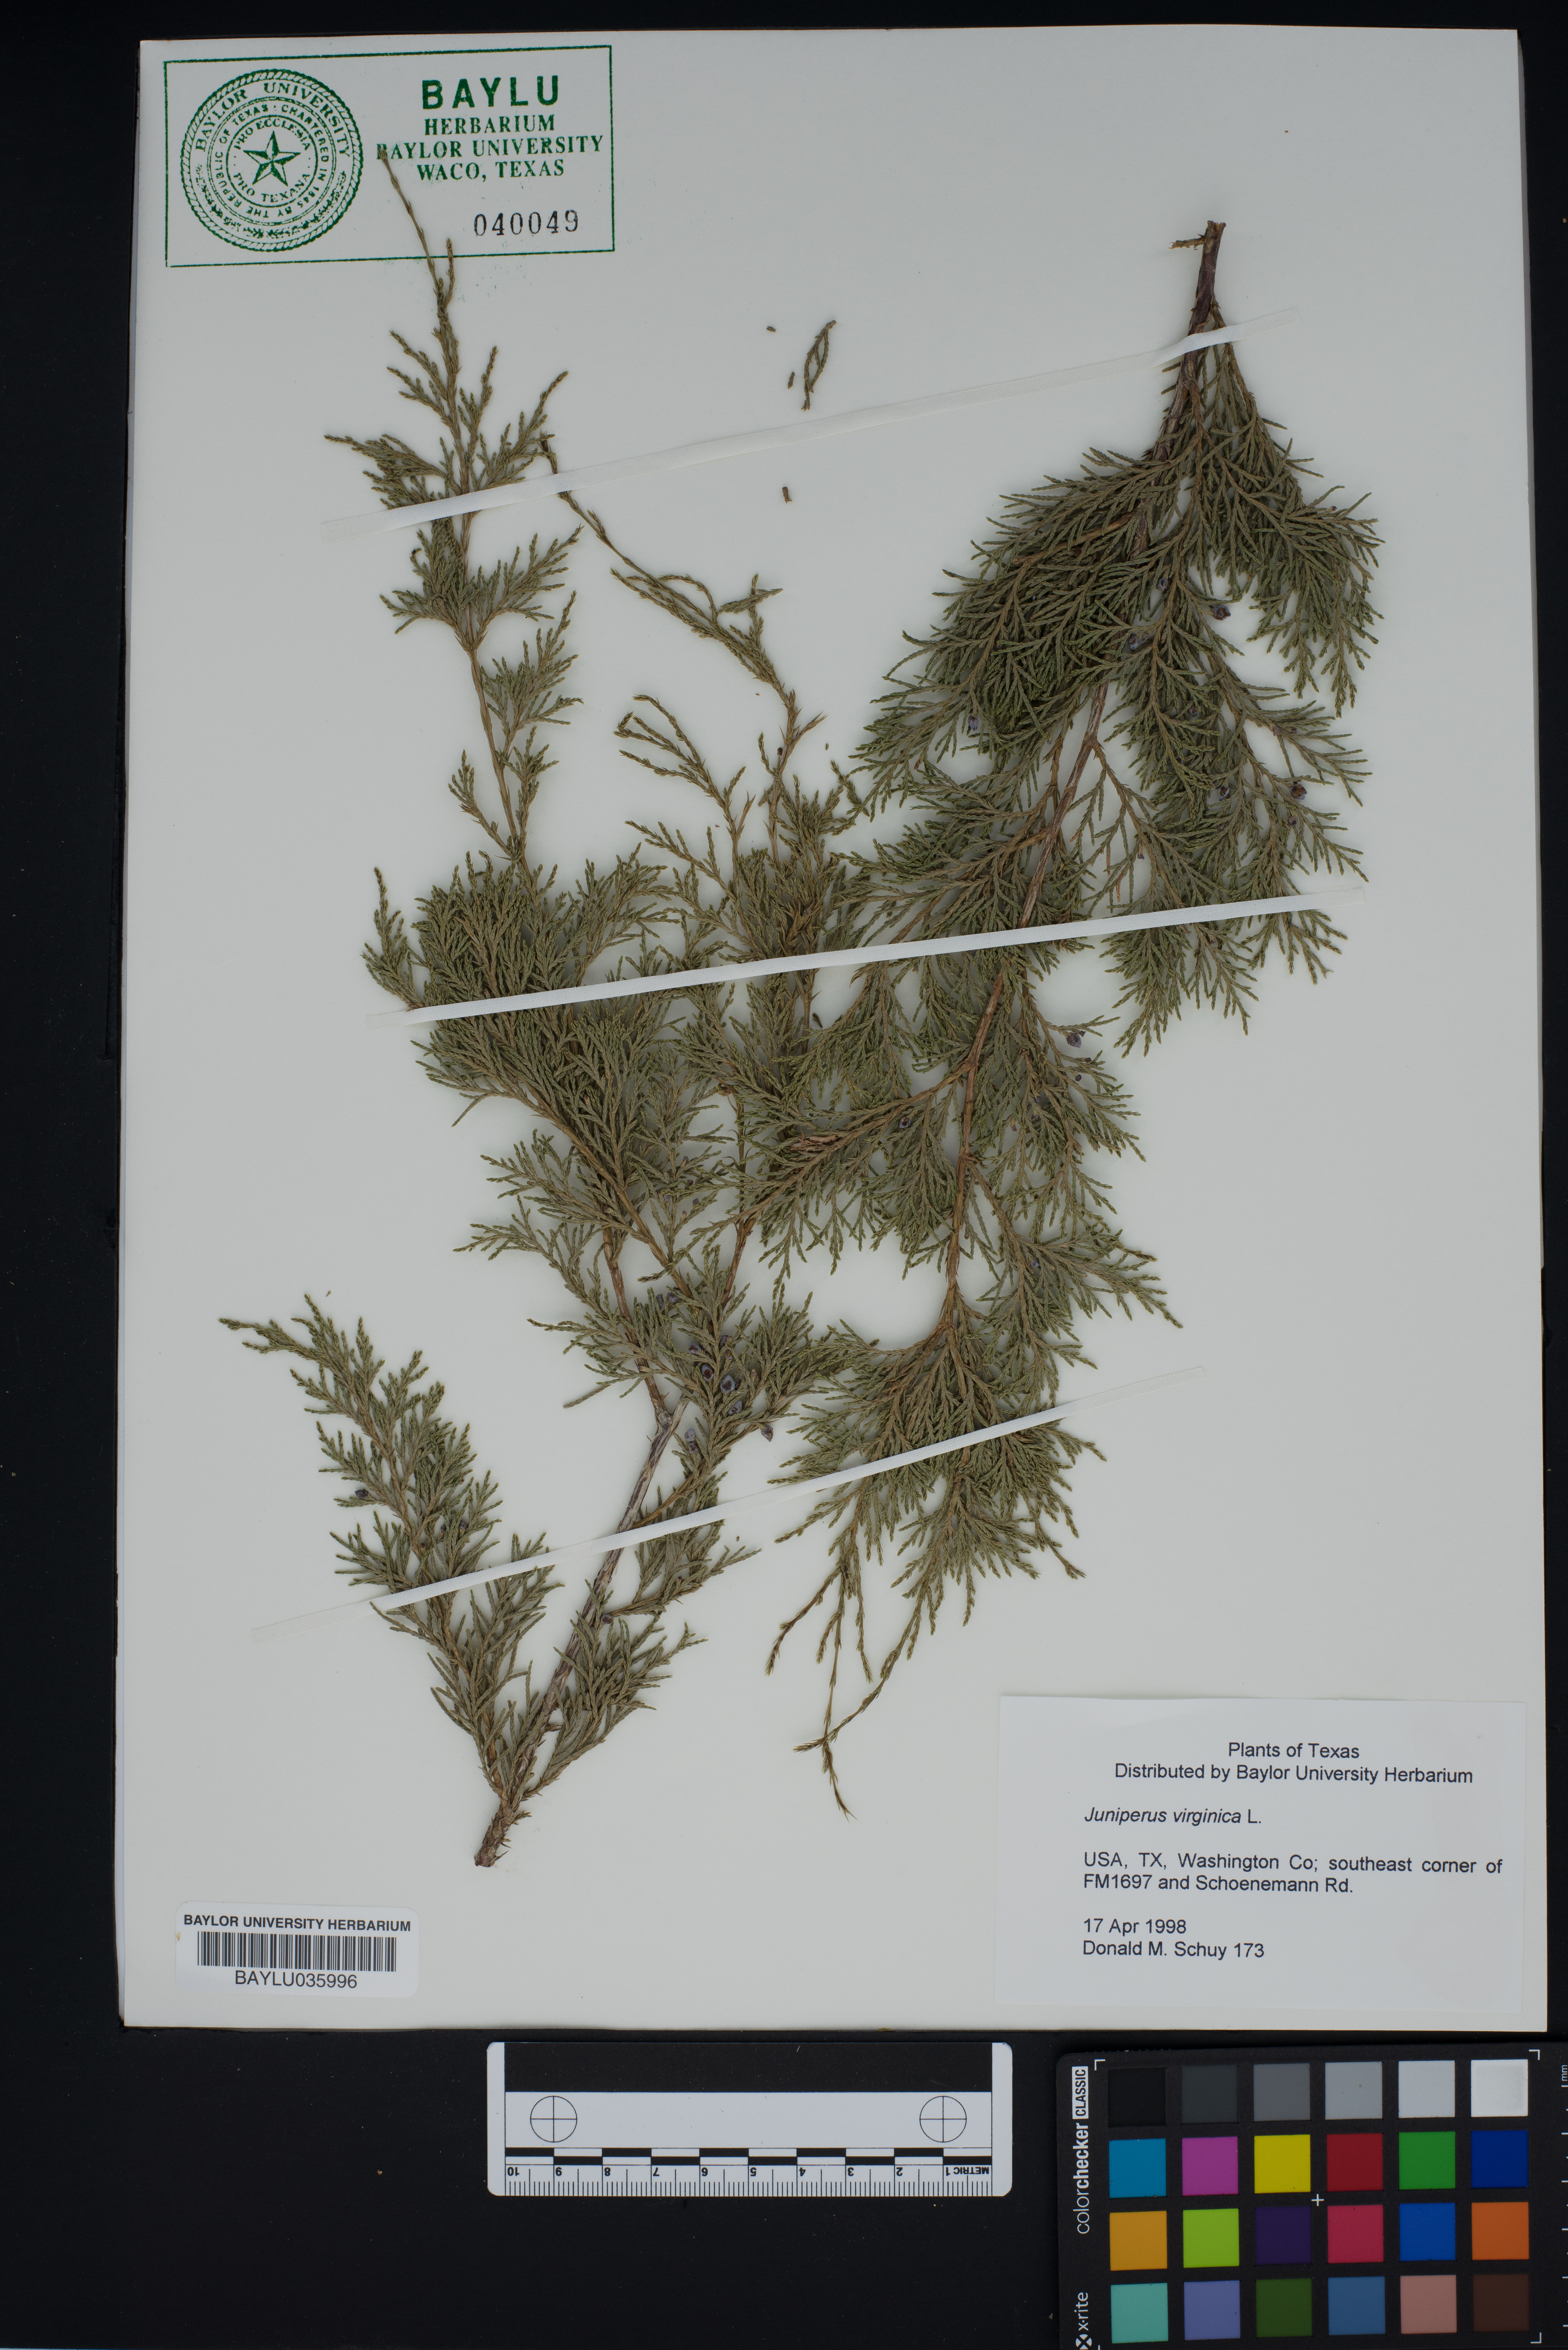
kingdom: Plantae
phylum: Tracheophyta
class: Pinopsida
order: Pinales
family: Cupressaceae
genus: Juniperus
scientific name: Juniperus chinensis
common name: Chinese juniper
